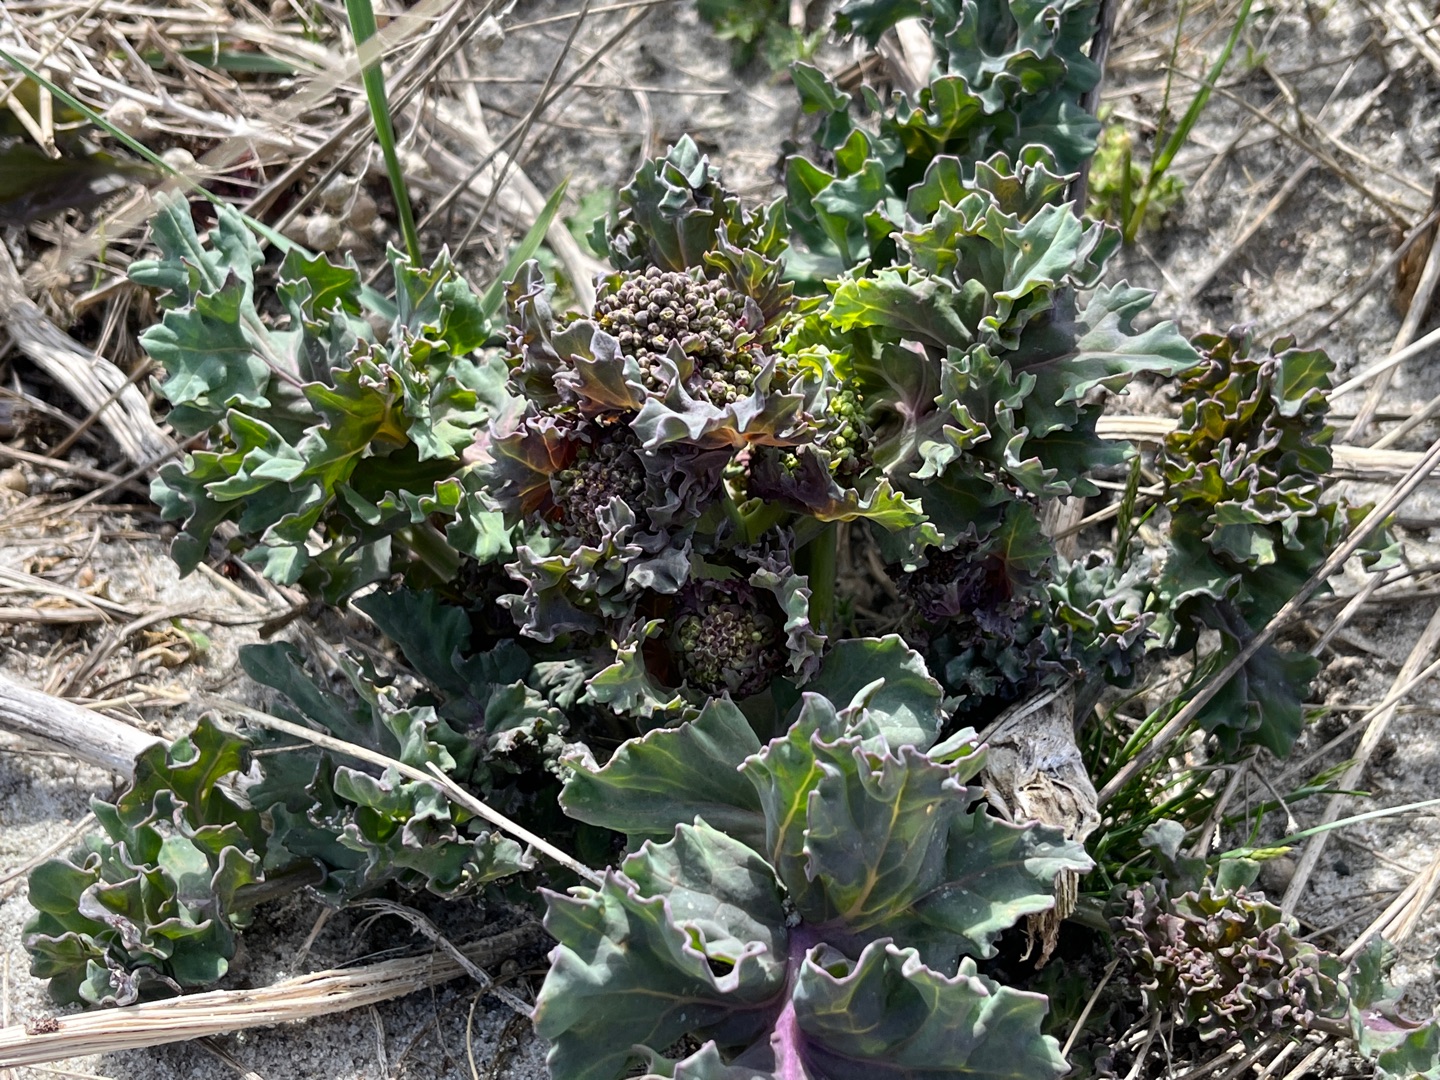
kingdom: Plantae
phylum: Tracheophyta
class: Magnoliopsida
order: Brassicales
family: Brassicaceae
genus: Crambe
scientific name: Crambe maritima
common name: Strandkål
